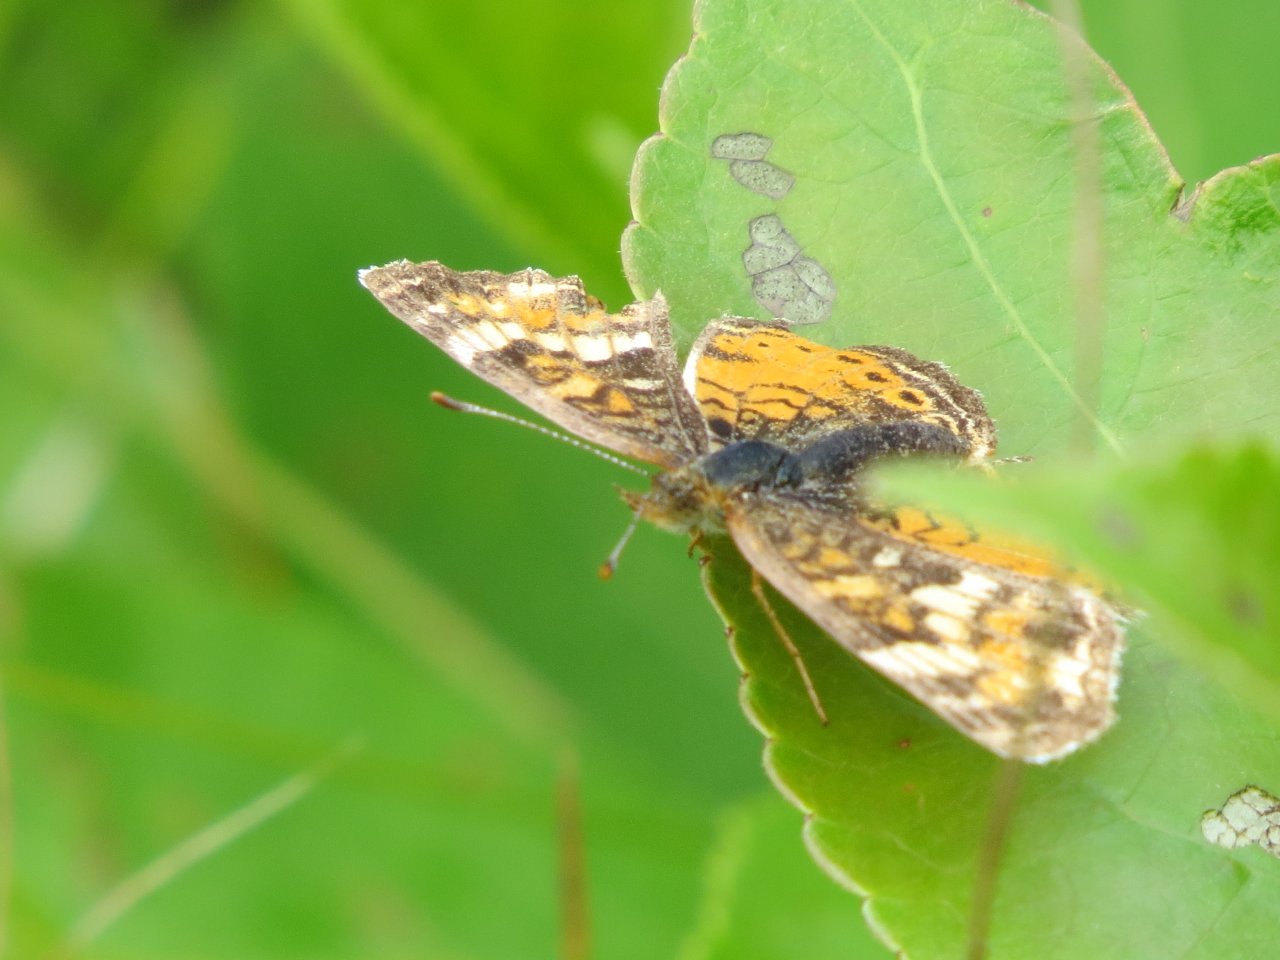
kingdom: Animalia
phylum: Arthropoda
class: Insecta
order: Lepidoptera
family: Nymphalidae
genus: Phyciodes
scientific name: Phyciodes tharos
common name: Northern Crescent
